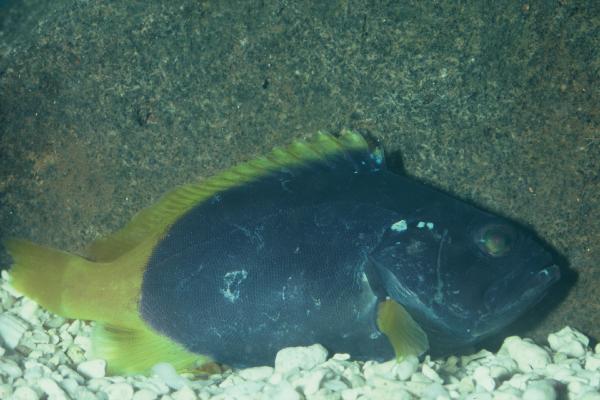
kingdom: Animalia
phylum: Chordata
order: Perciformes
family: Serranidae
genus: Epinephelus
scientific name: Epinephelus flavocaeruleus
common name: Blue and yellow grouper
